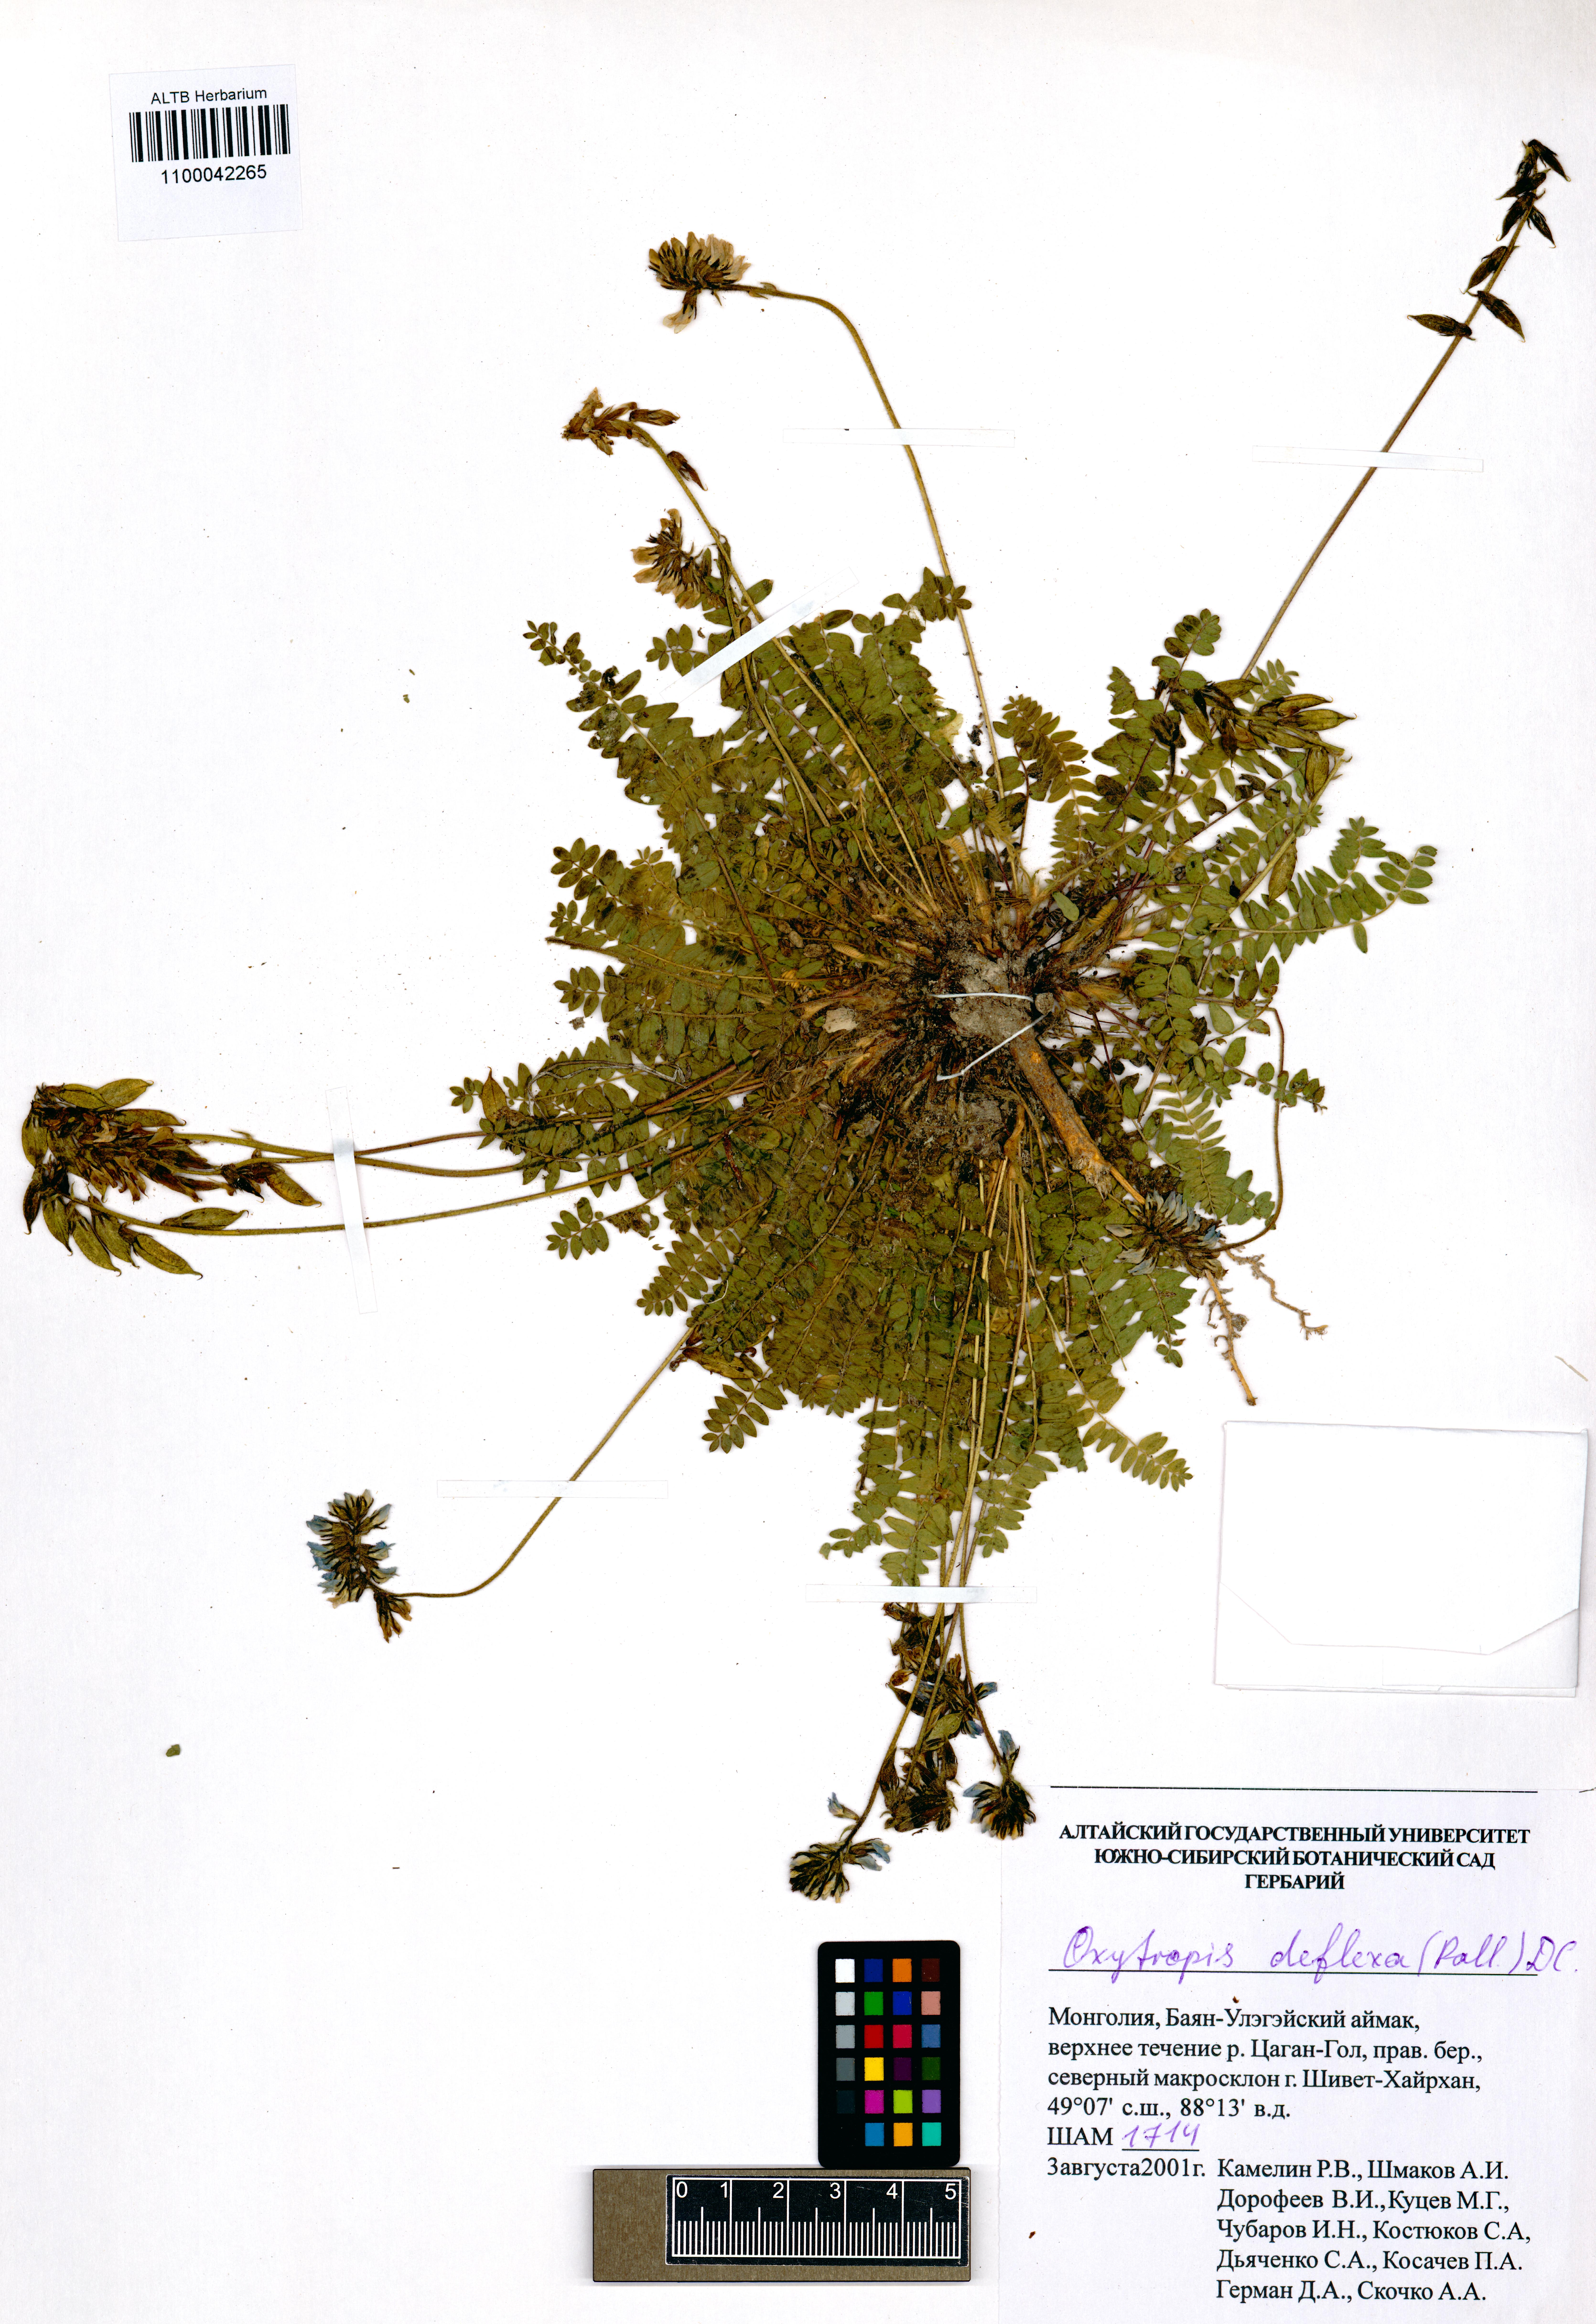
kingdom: Plantae
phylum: Tracheophyta
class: Magnoliopsida
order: Fabales
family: Fabaceae
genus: Oxytropis
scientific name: Oxytropis deflexa
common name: Stemmed oxytrope
